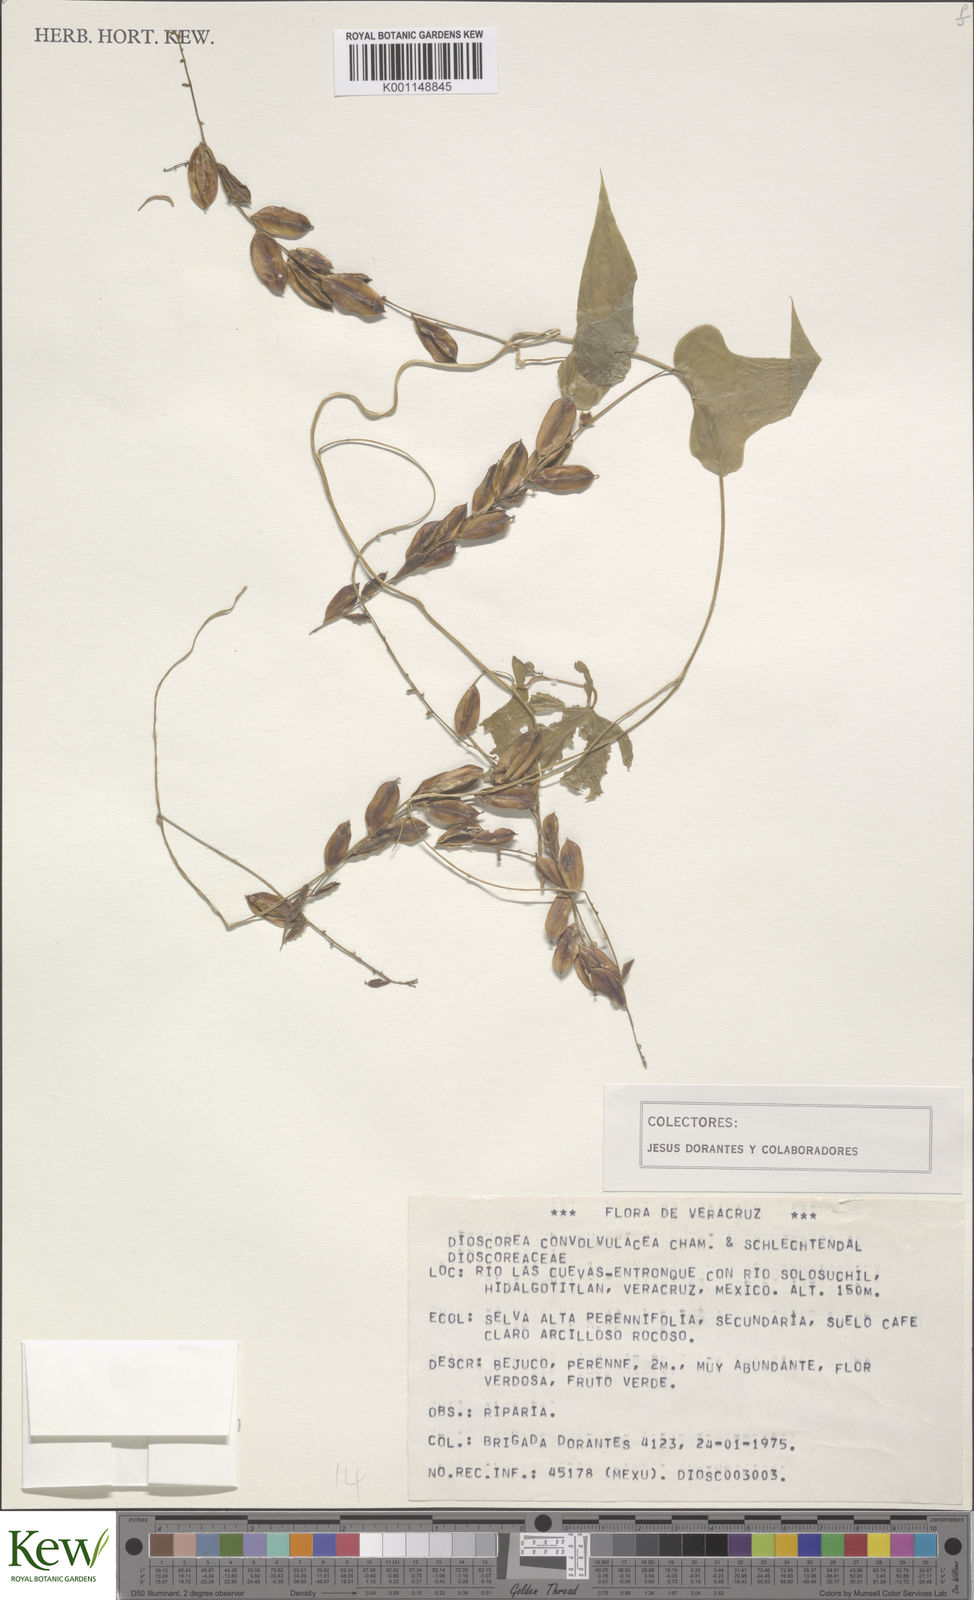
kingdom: Plantae
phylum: Tracheophyta
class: Liliopsida
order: Dioscoreales
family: Dioscoreaceae
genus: Dioscorea
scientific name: Dioscorea convolvulacea
